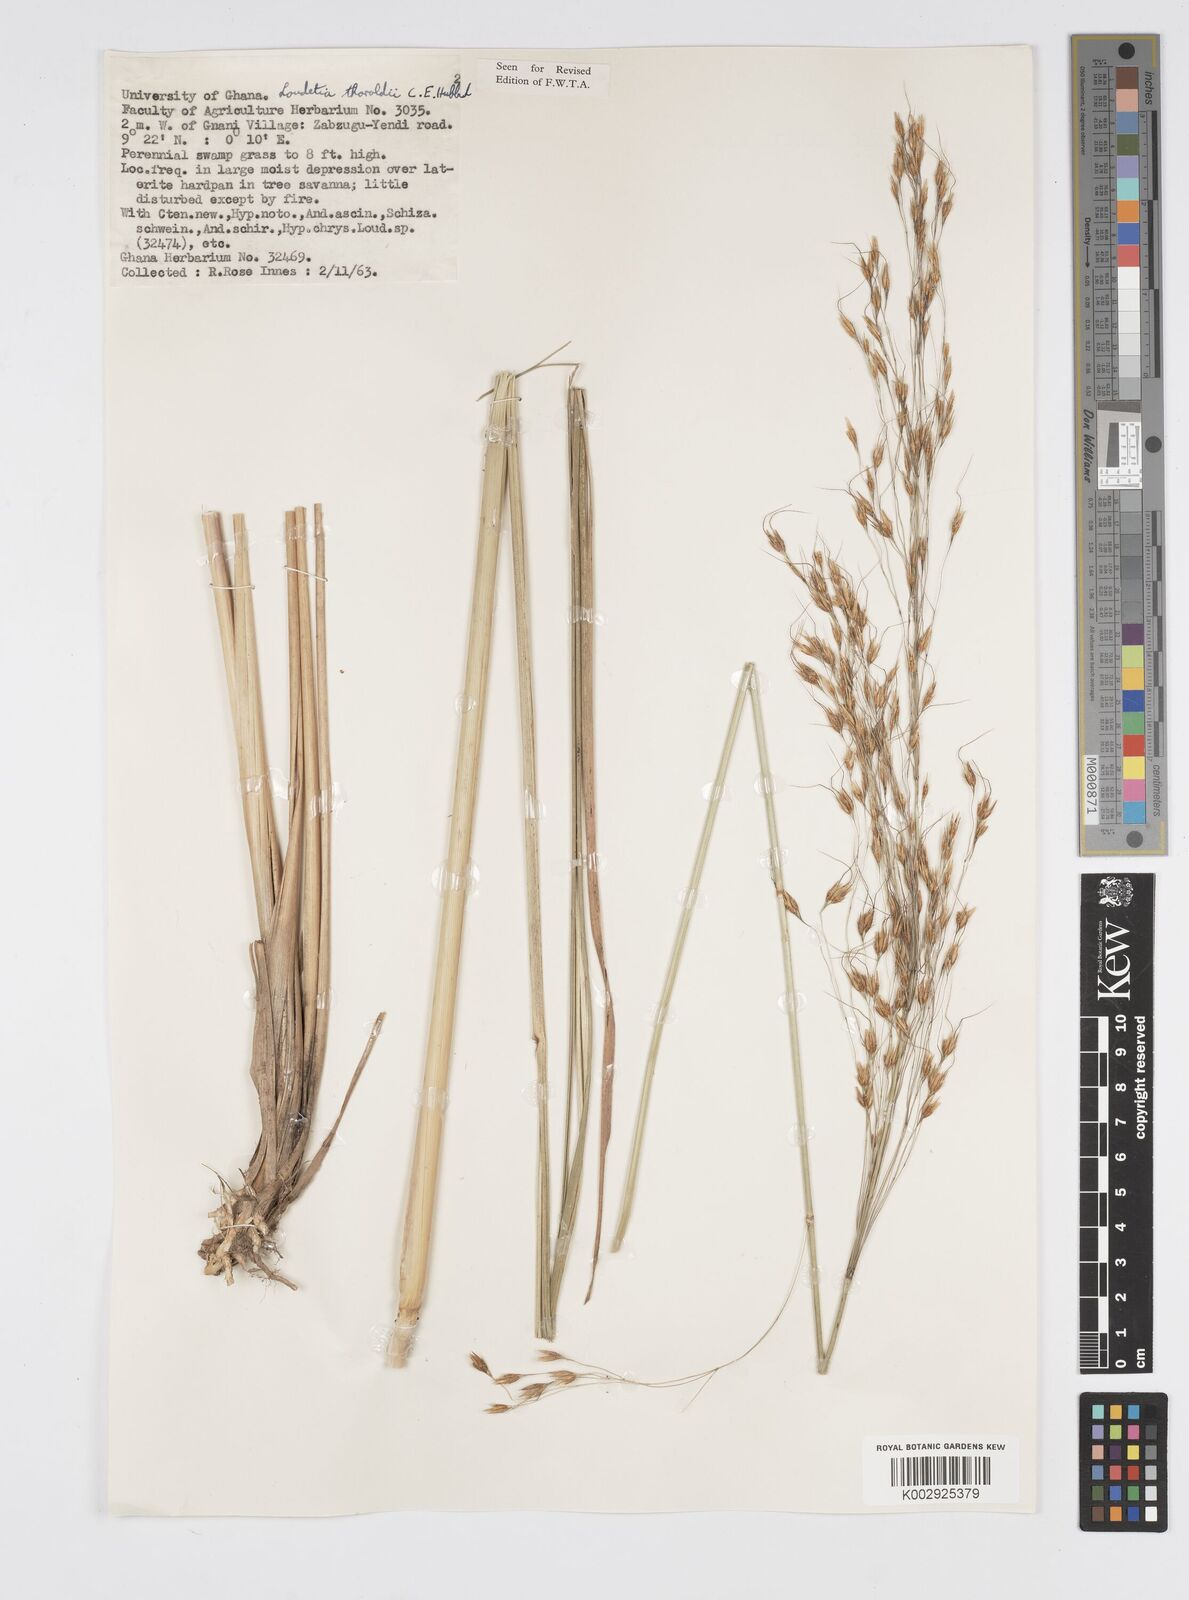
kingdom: Plantae
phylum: Tracheophyta
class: Liliopsida
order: Poales
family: Poaceae
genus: Loudetiopsis
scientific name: Loudetiopsis thoroldii
